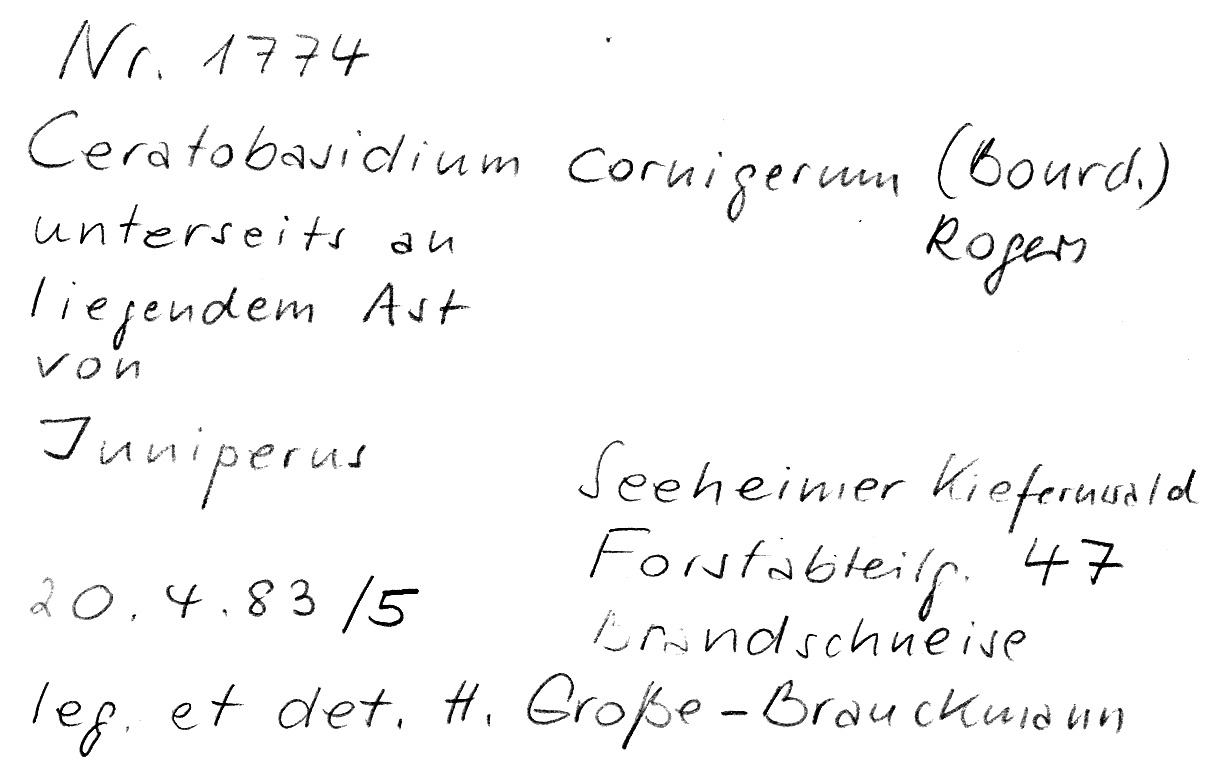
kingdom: Fungi
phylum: Basidiomycota
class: Agaricomycetes
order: Cantharellales
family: Ceratobasidiaceae
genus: Ceratobasidium
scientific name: Ceratobasidium cornigerum
